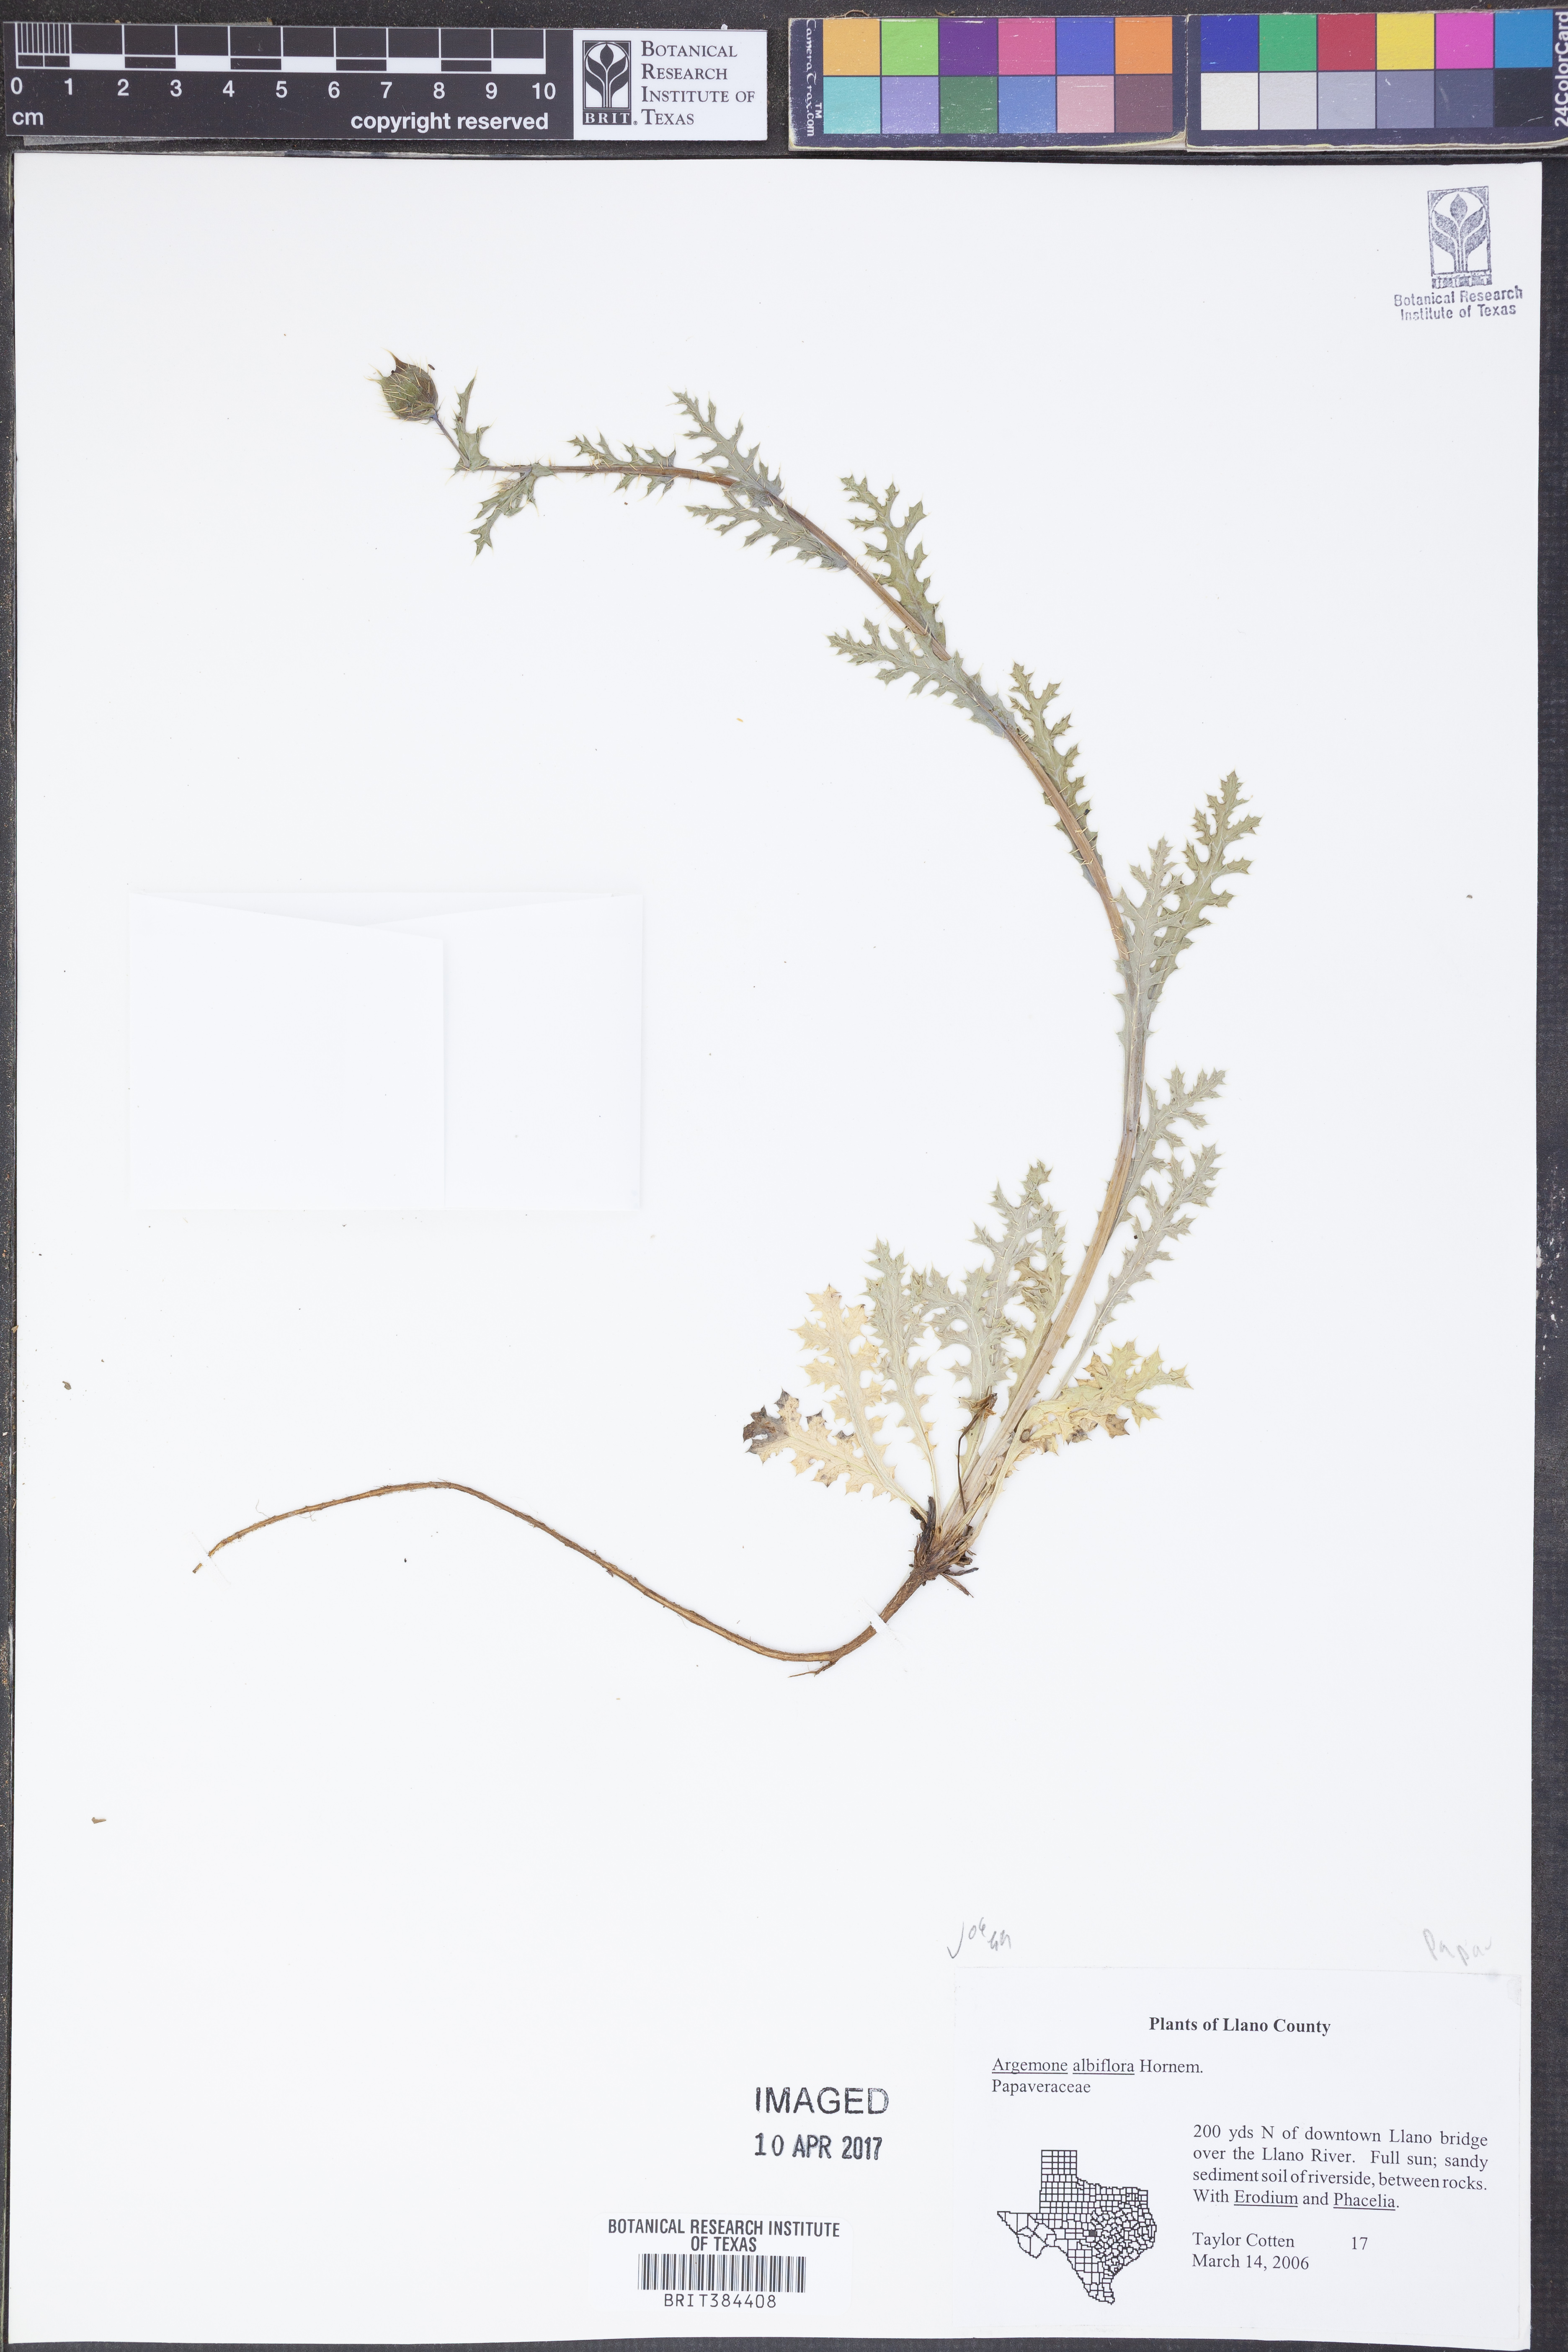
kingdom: Plantae
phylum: Tracheophyta
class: Magnoliopsida
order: Ranunculales
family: Papaveraceae
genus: Argemone
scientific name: Argemone albiflora
